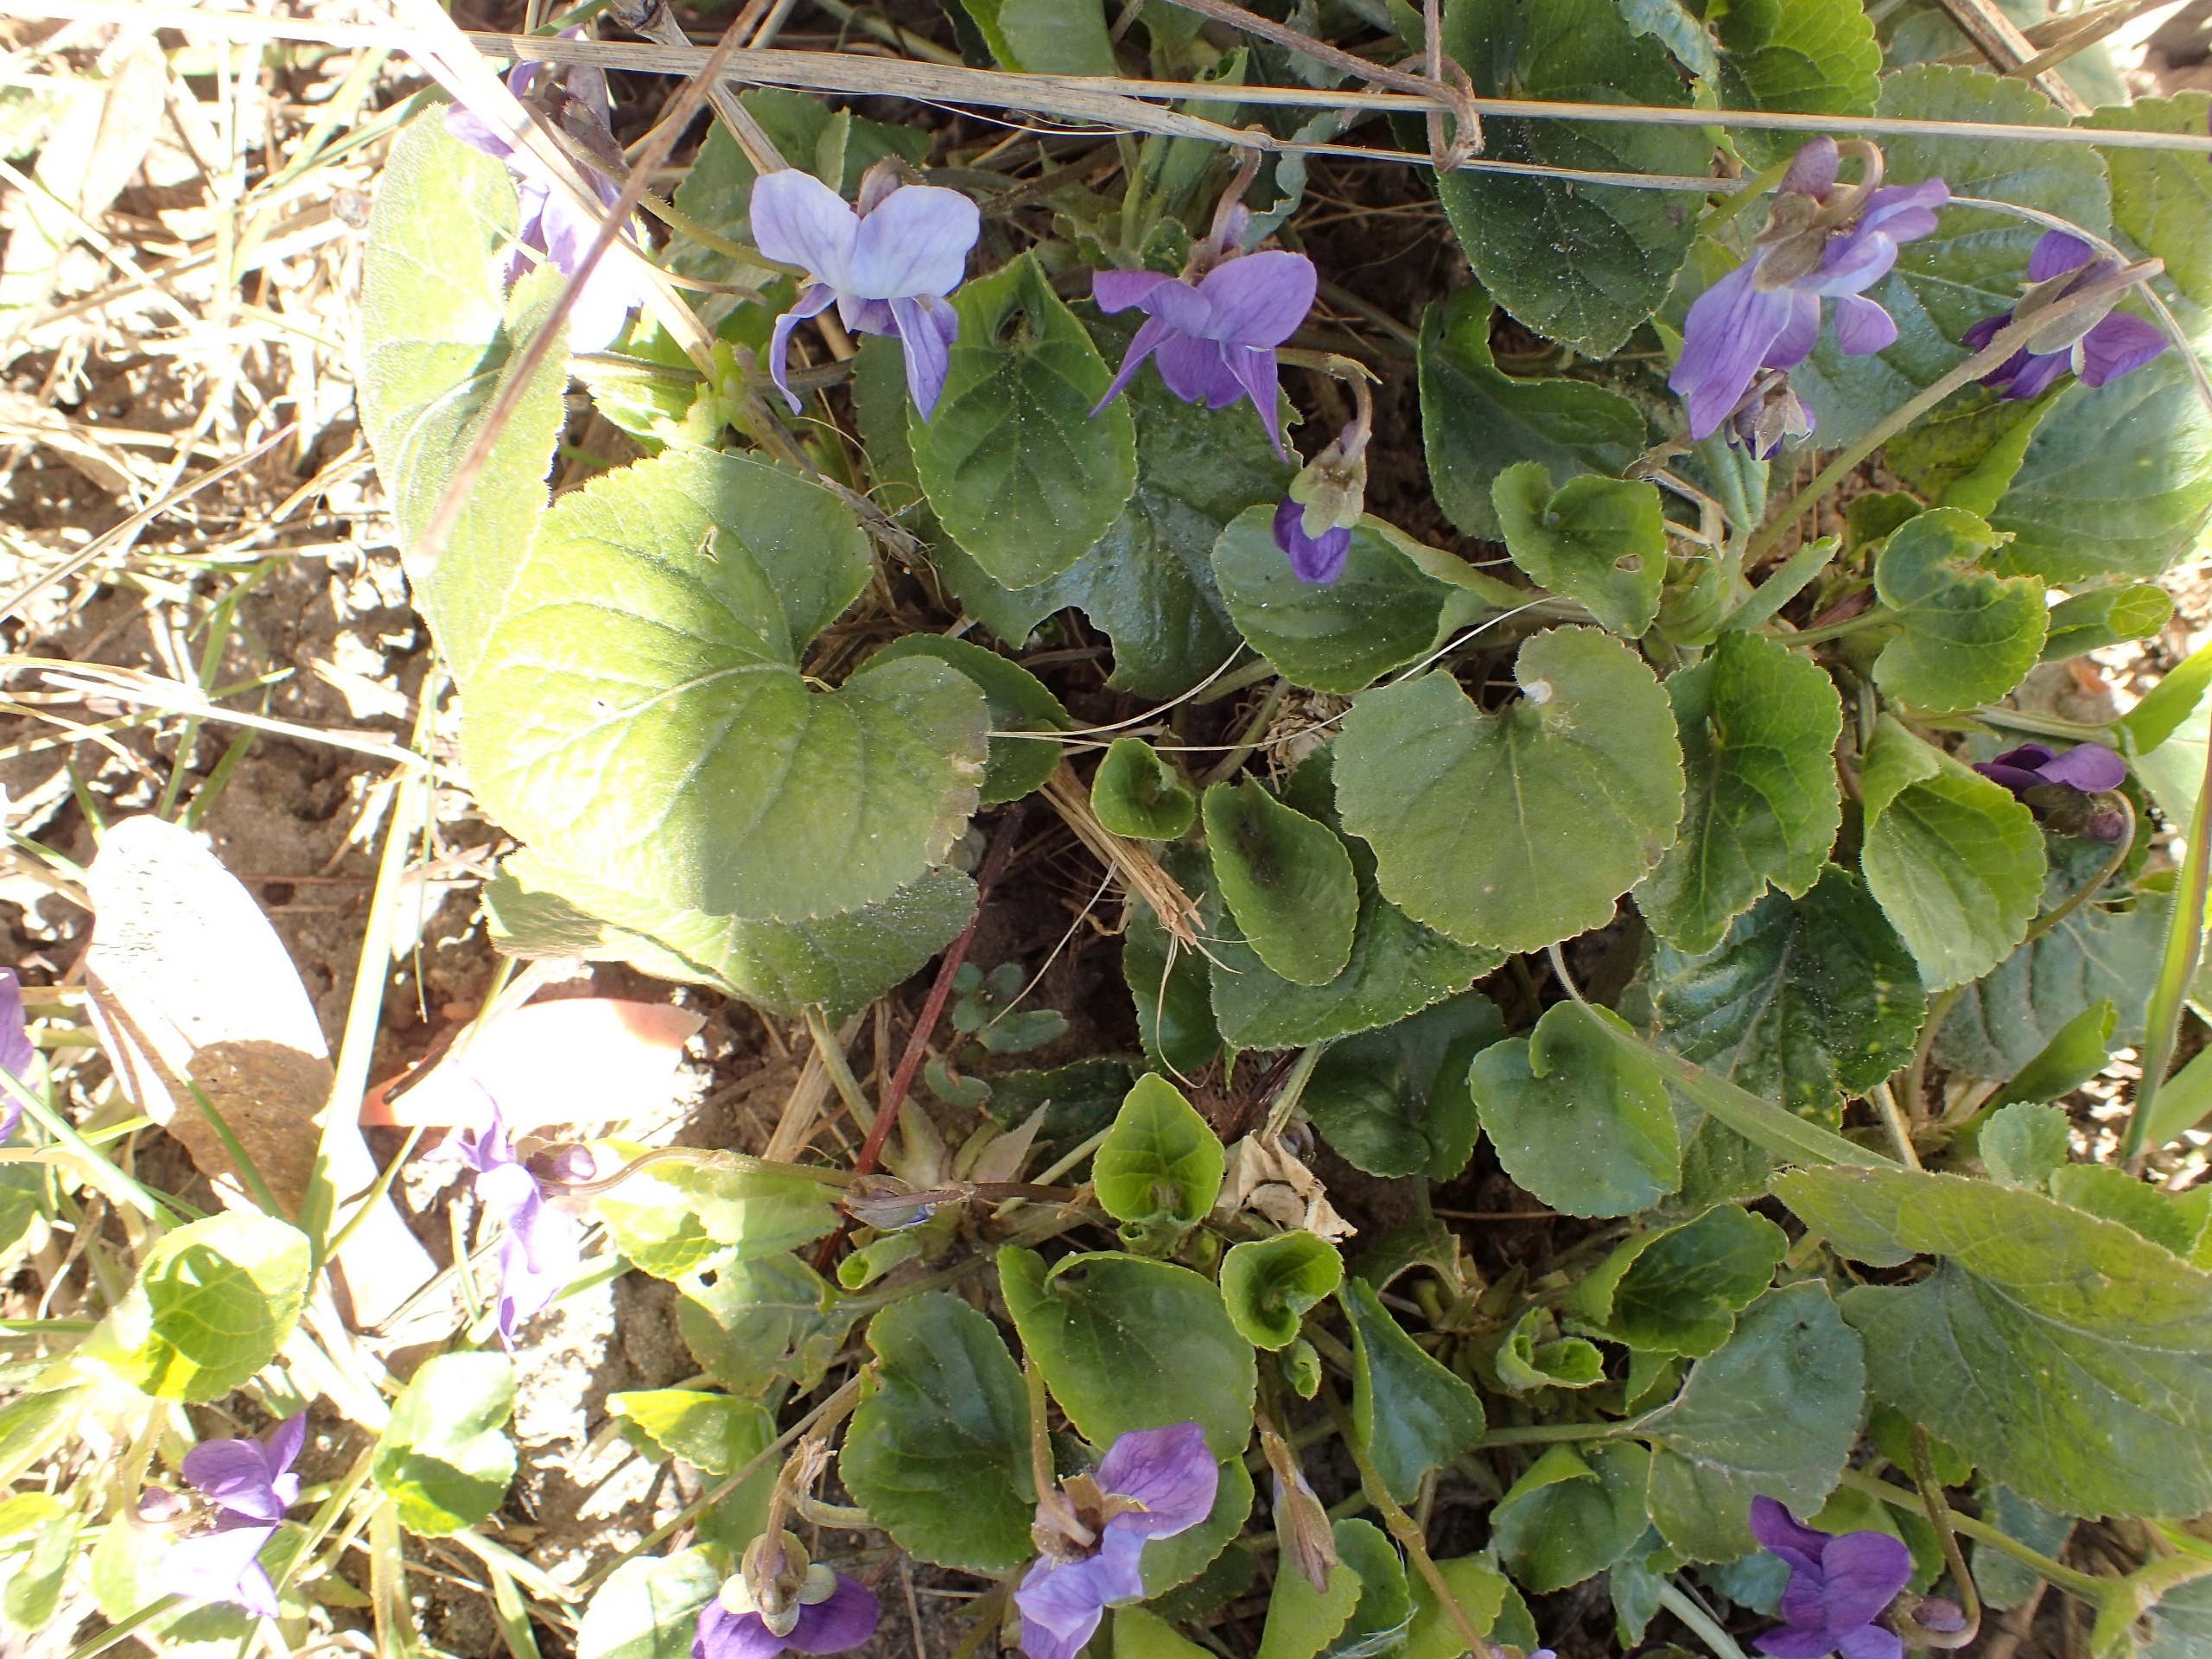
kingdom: Plantae
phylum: Tracheophyta
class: Magnoliopsida
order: Malpighiales
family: Violaceae
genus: Viola
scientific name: Viola odorata
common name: Marts-viol
